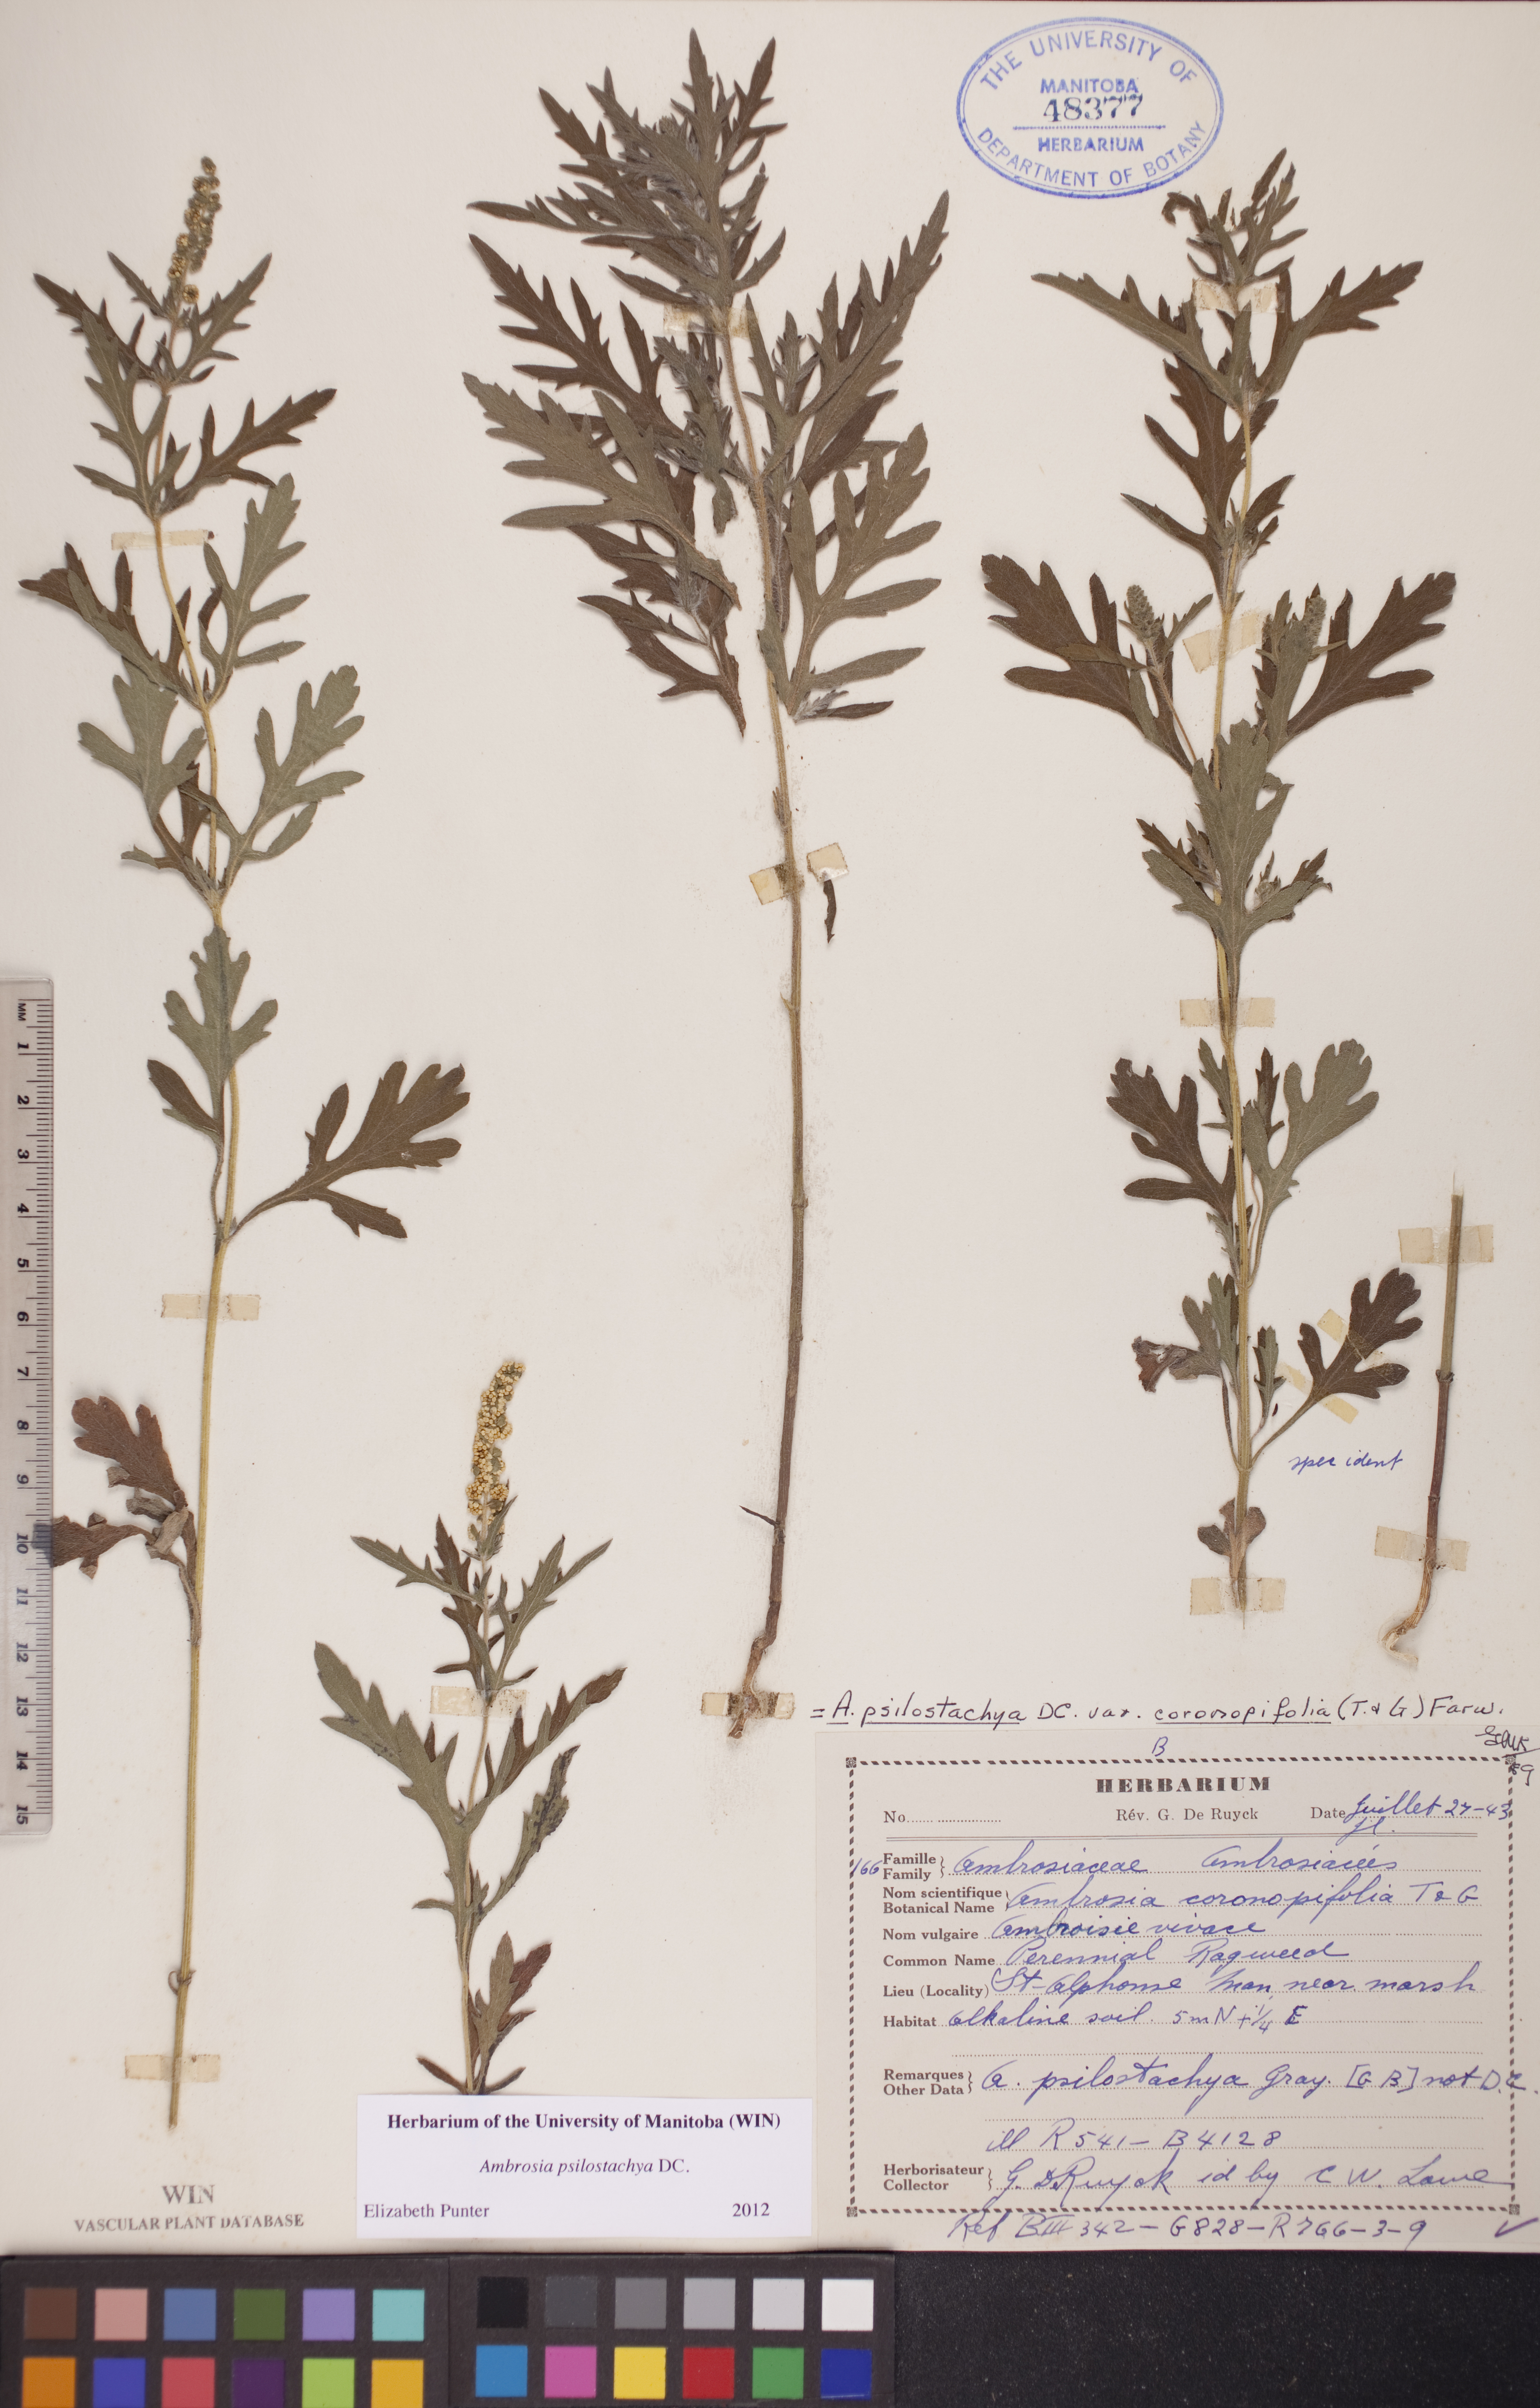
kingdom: Plantae
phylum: Tracheophyta
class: Magnoliopsida
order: Asterales
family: Asteraceae
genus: Ambrosia
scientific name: Ambrosia psilostachya
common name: Perennial ragweed
